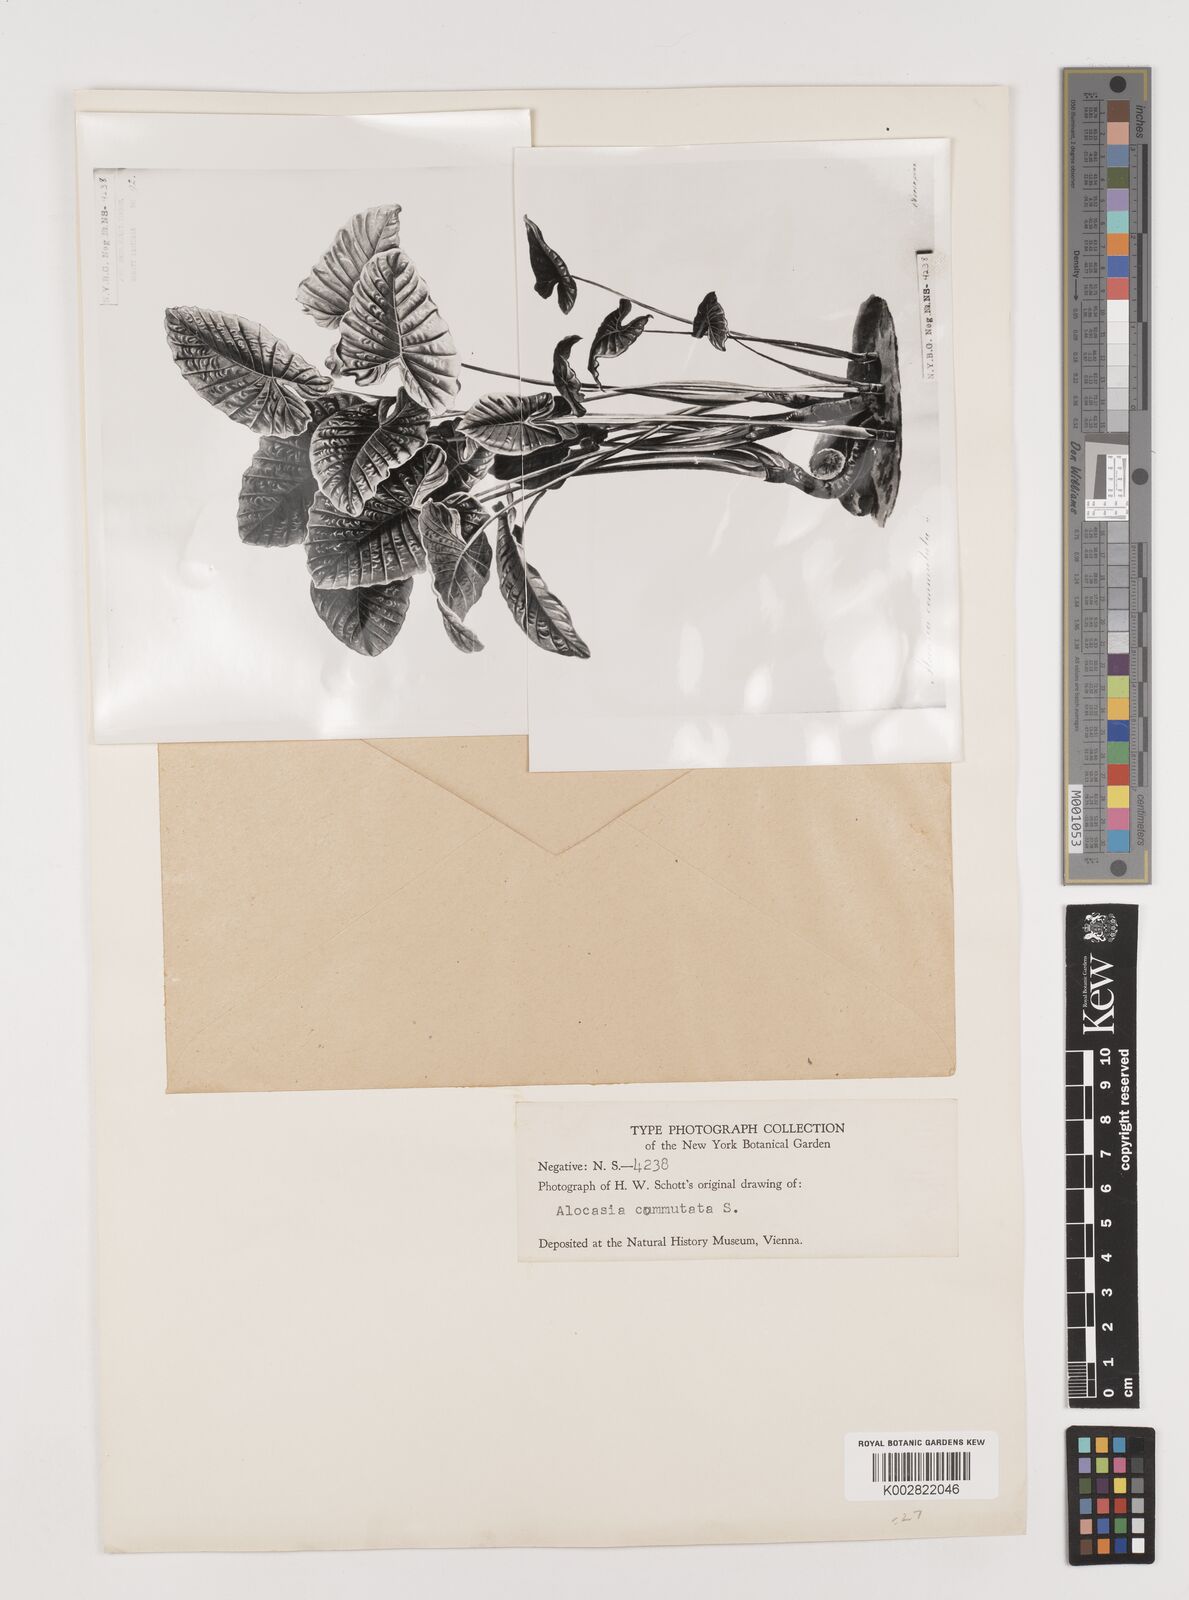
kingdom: Plantae
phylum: Tracheophyta
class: Liliopsida
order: Alismatales
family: Araceae
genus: Alocasia
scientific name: Alocasia odora
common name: Asian taro
